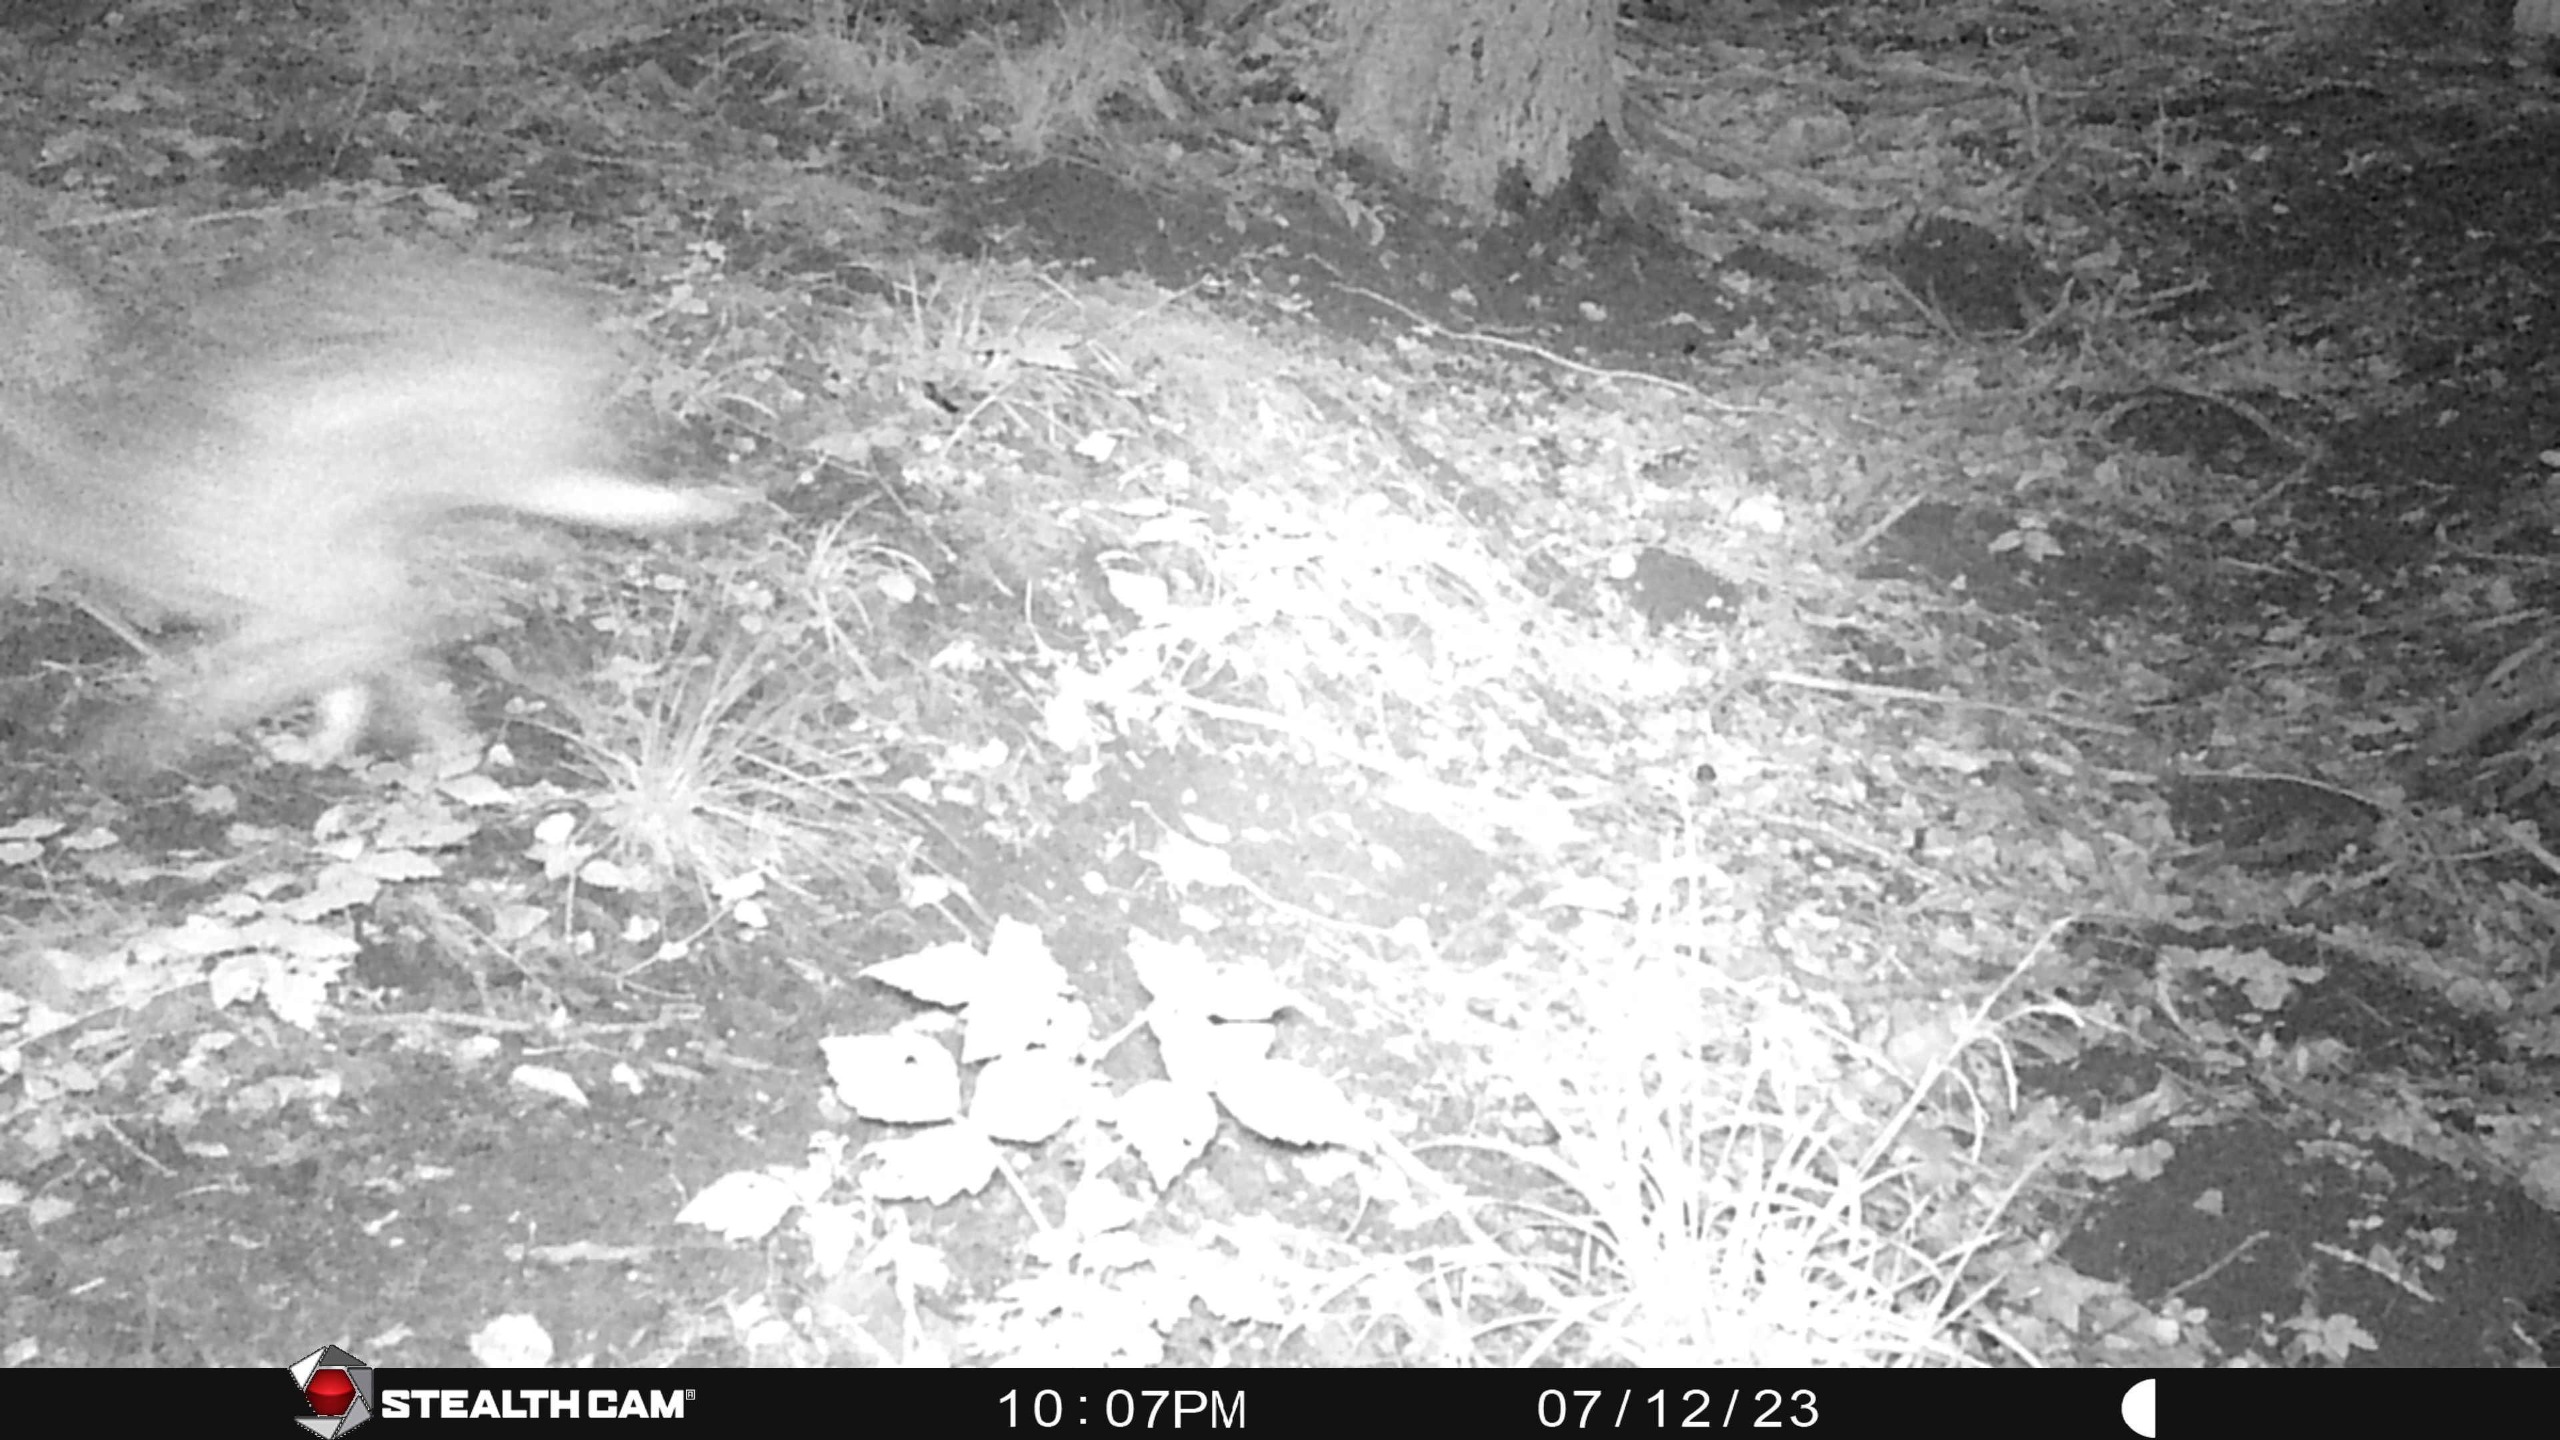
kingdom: Animalia
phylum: Chordata
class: Mammalia
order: Lagomorpha
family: Leporidae
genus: Lepus
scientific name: Lepus europaeus
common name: Hare
